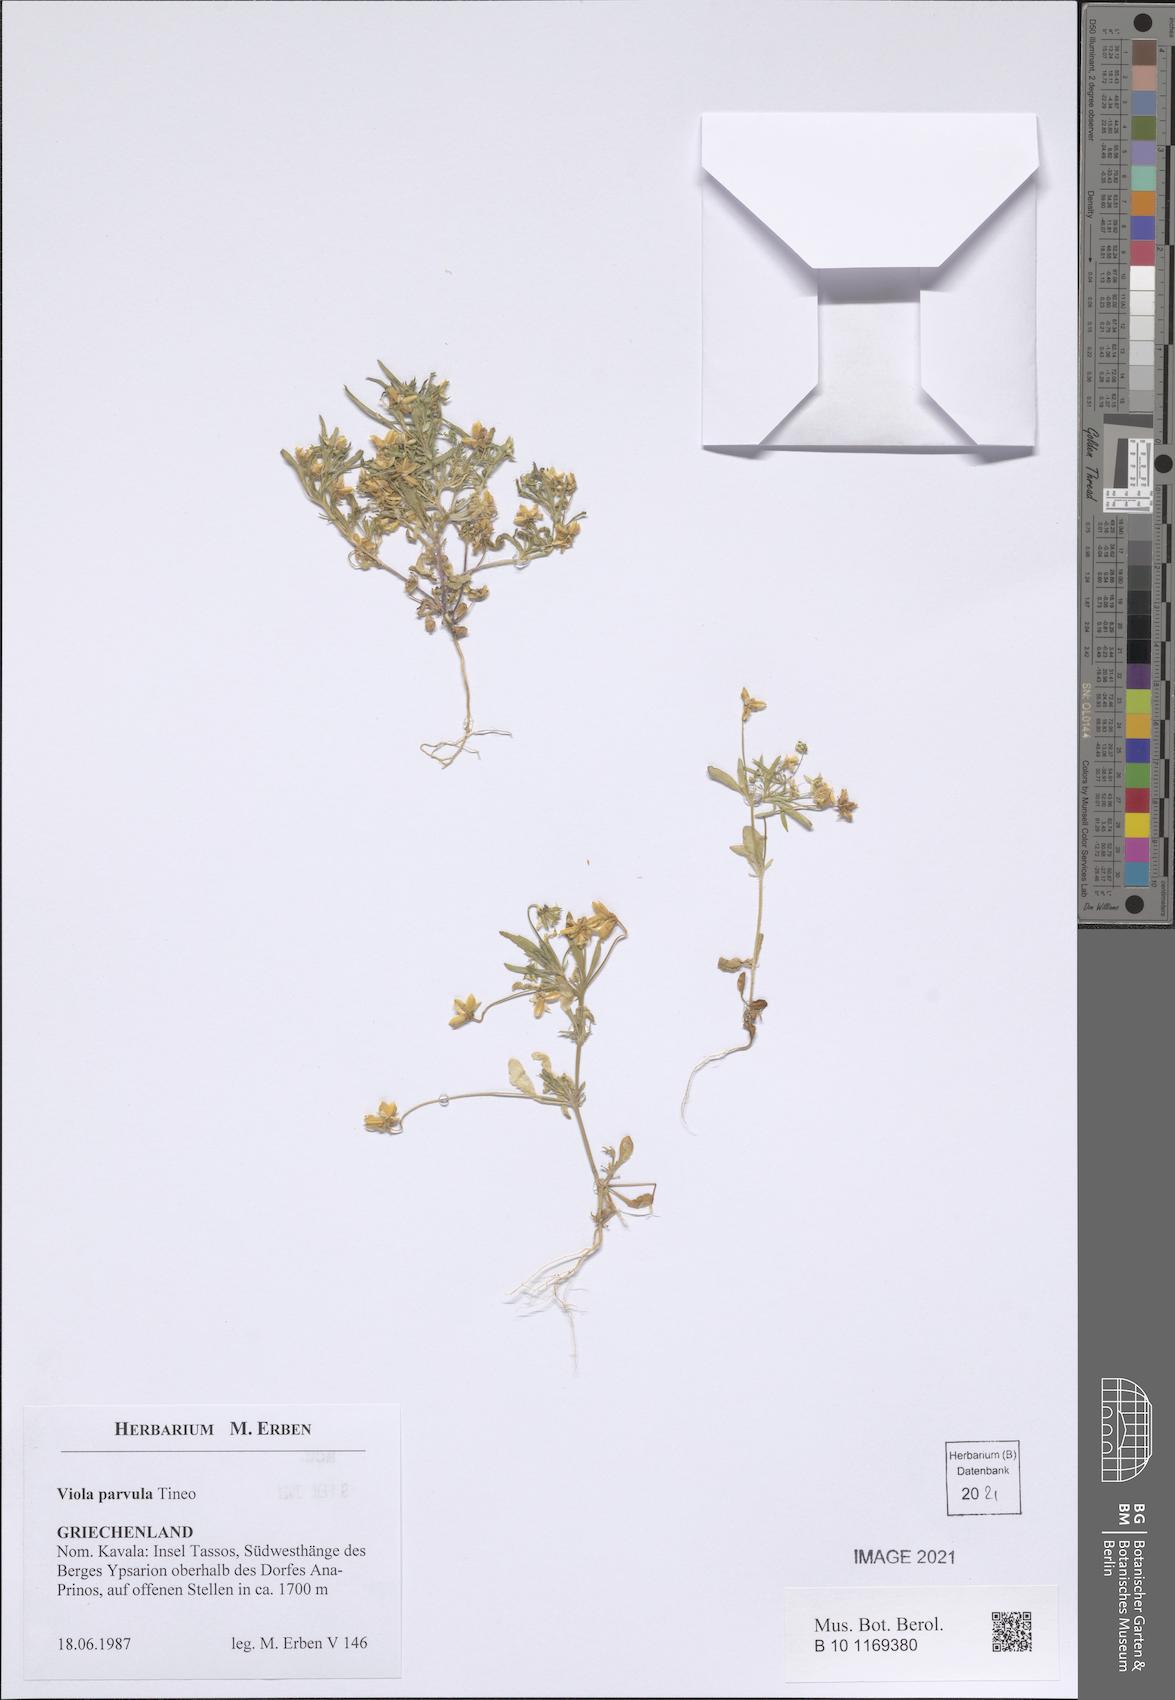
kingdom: Plantae
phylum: Tracheophyta
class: Magnoliopsida
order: Malpighiales
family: Violaceae
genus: Viola
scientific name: Viola parvula
